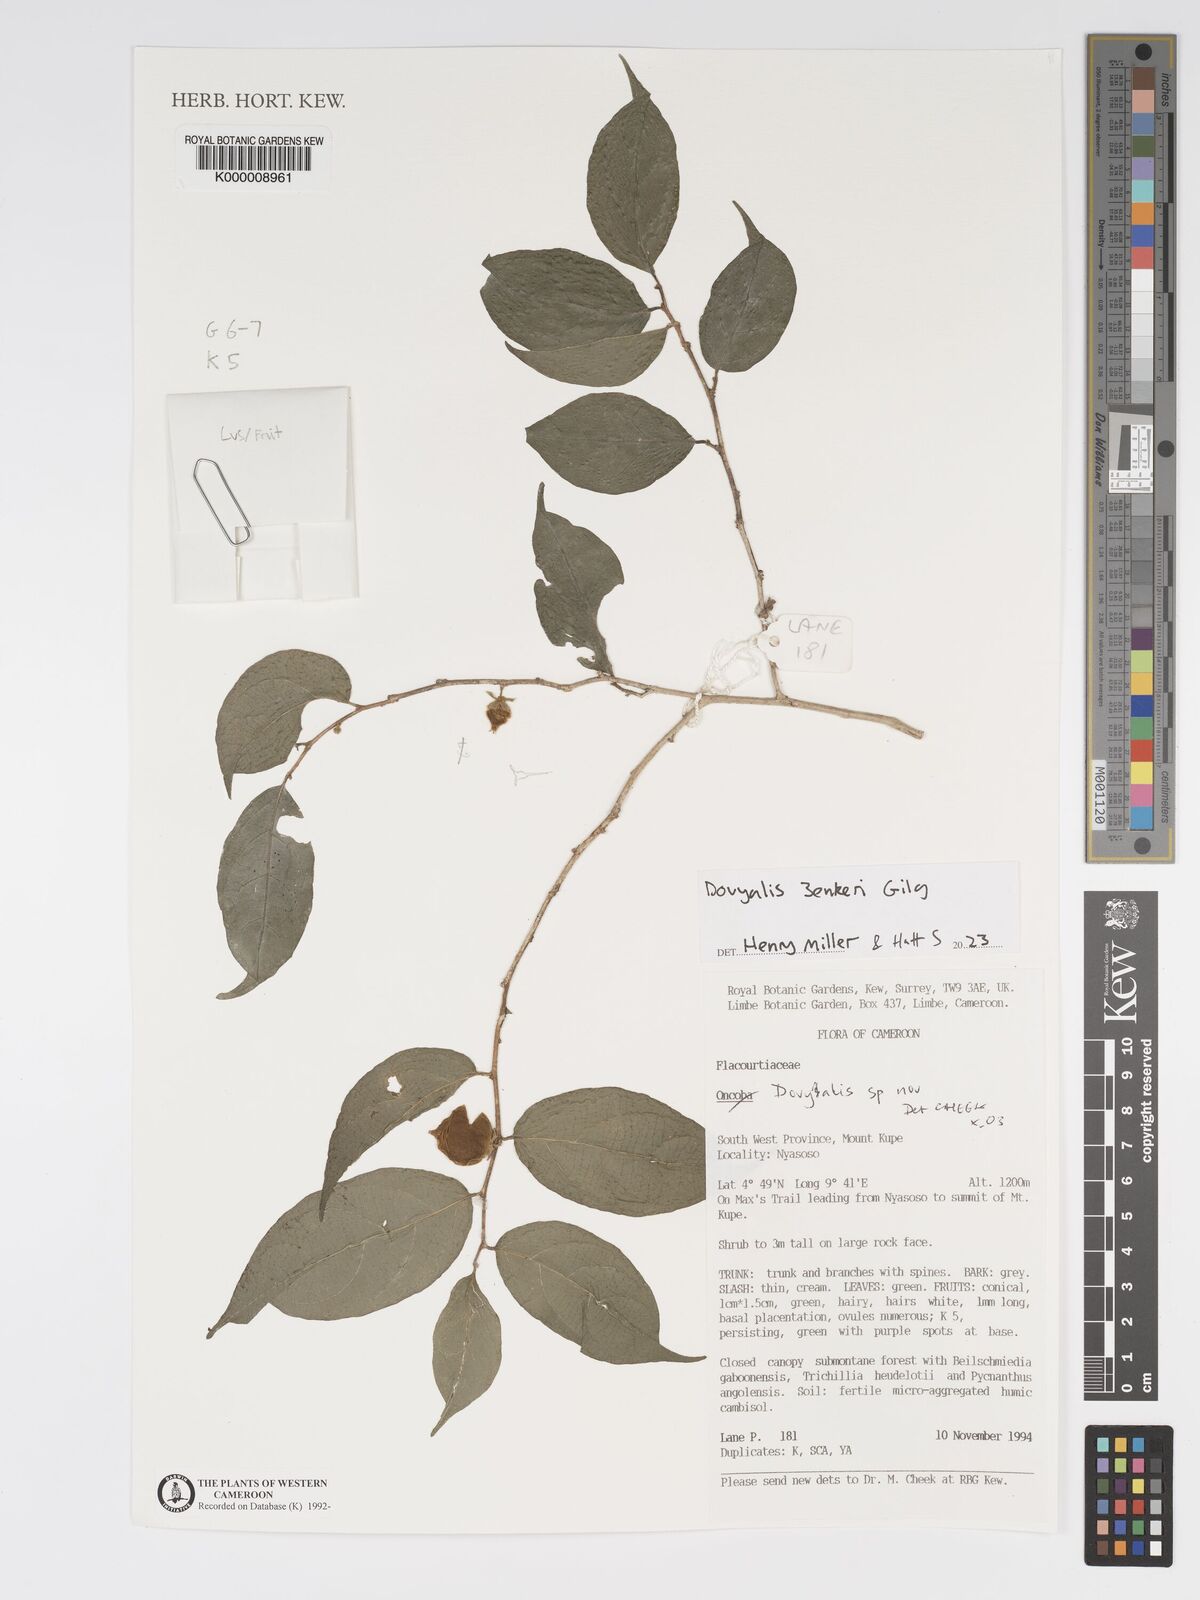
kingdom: Plantae
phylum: Tracheophyta
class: Magnoliopsida
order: Malpighiales
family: Salicaceae
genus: Dovyalis
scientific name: Dovyalis
